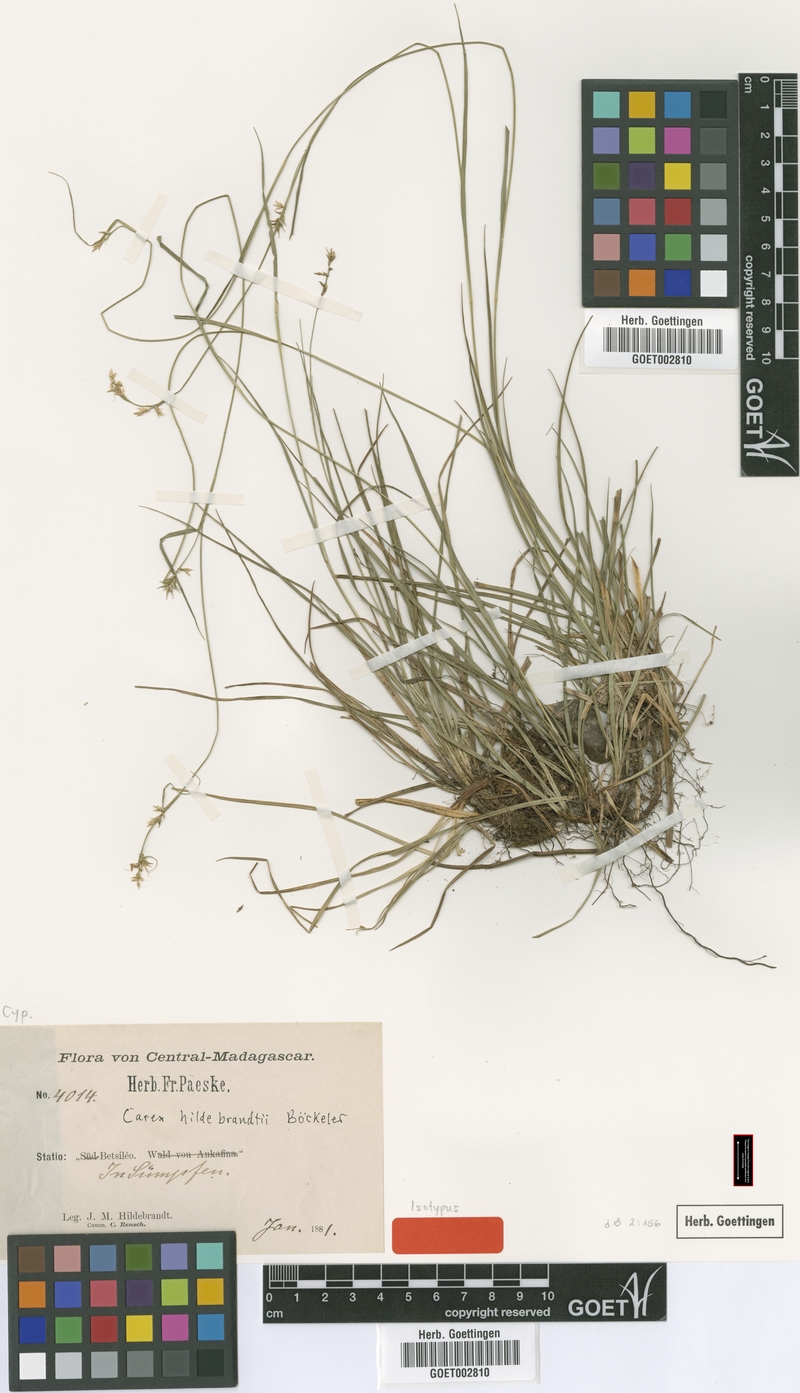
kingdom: Plantae
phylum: Tracheophyta
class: Liliopsida
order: Poales
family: Cyperaceae
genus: Carex
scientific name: Carex hildebrandtiana
